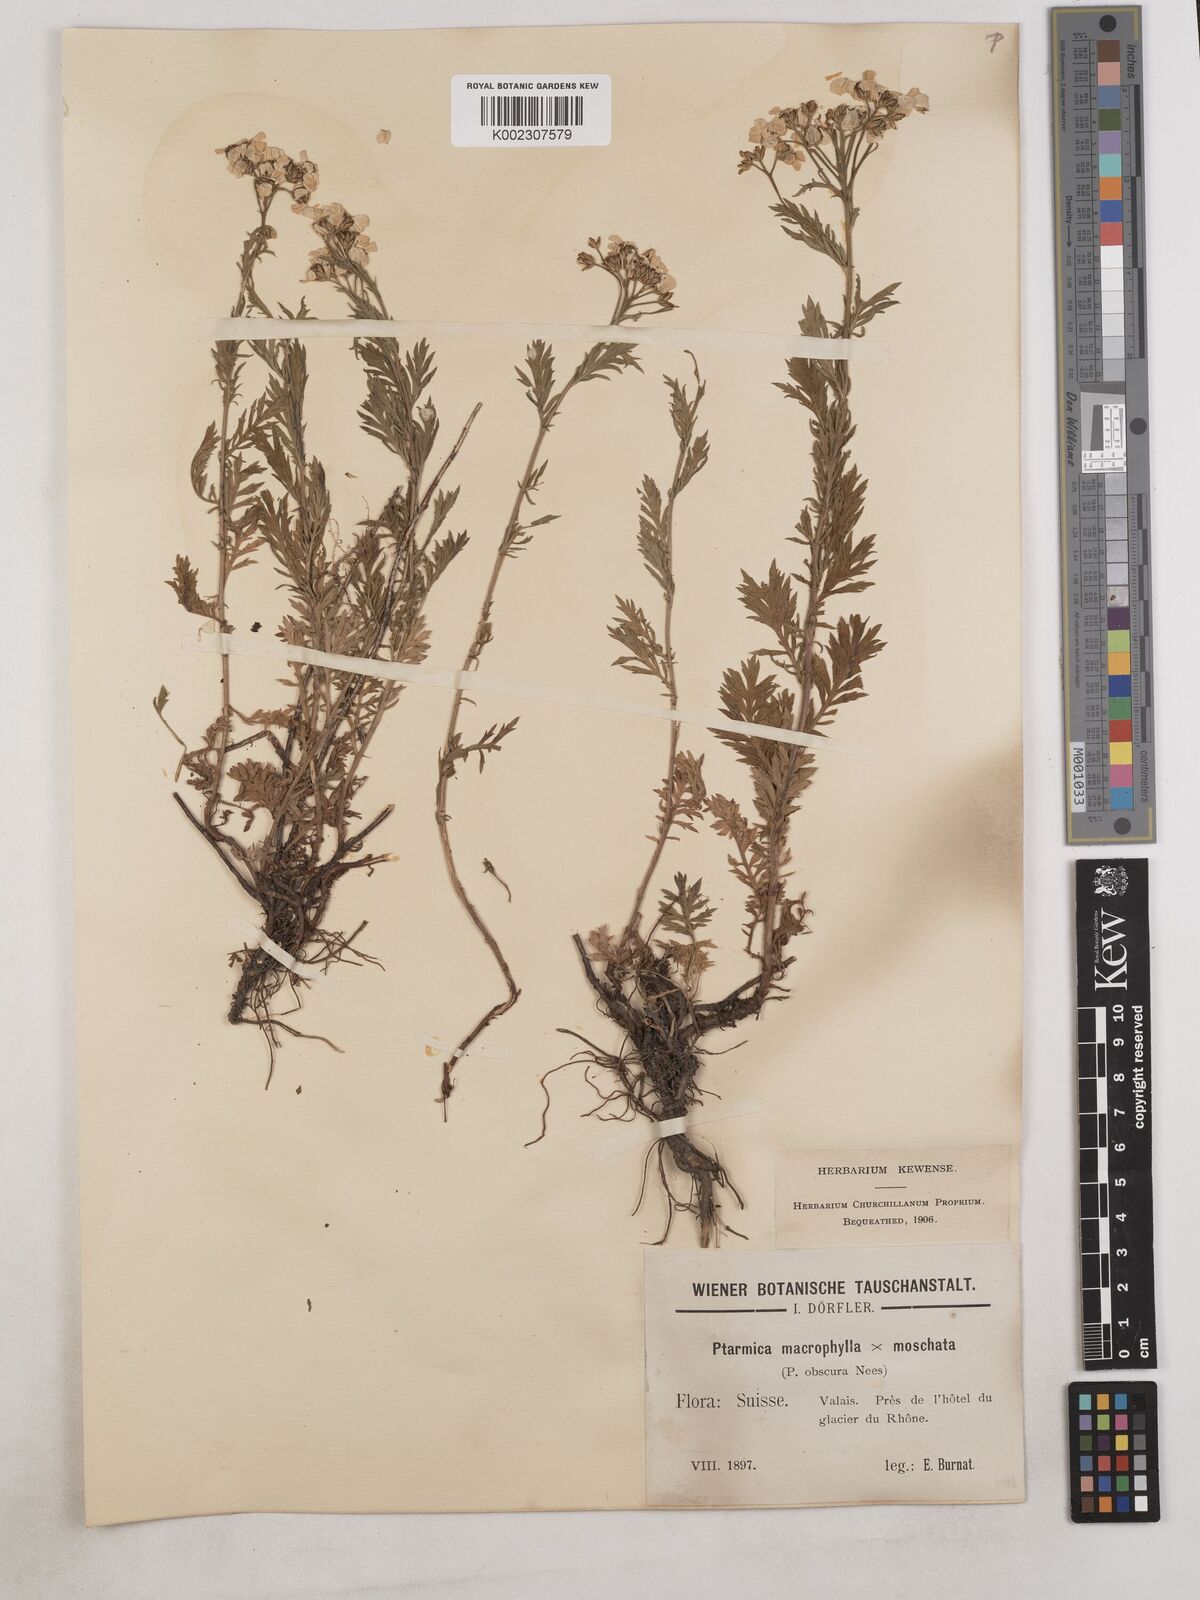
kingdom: Plantae
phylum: Tracheophyta
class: Magnoliopsida
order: Asterales
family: Asteraceae
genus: Achillea
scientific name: Achillea valesiaca
